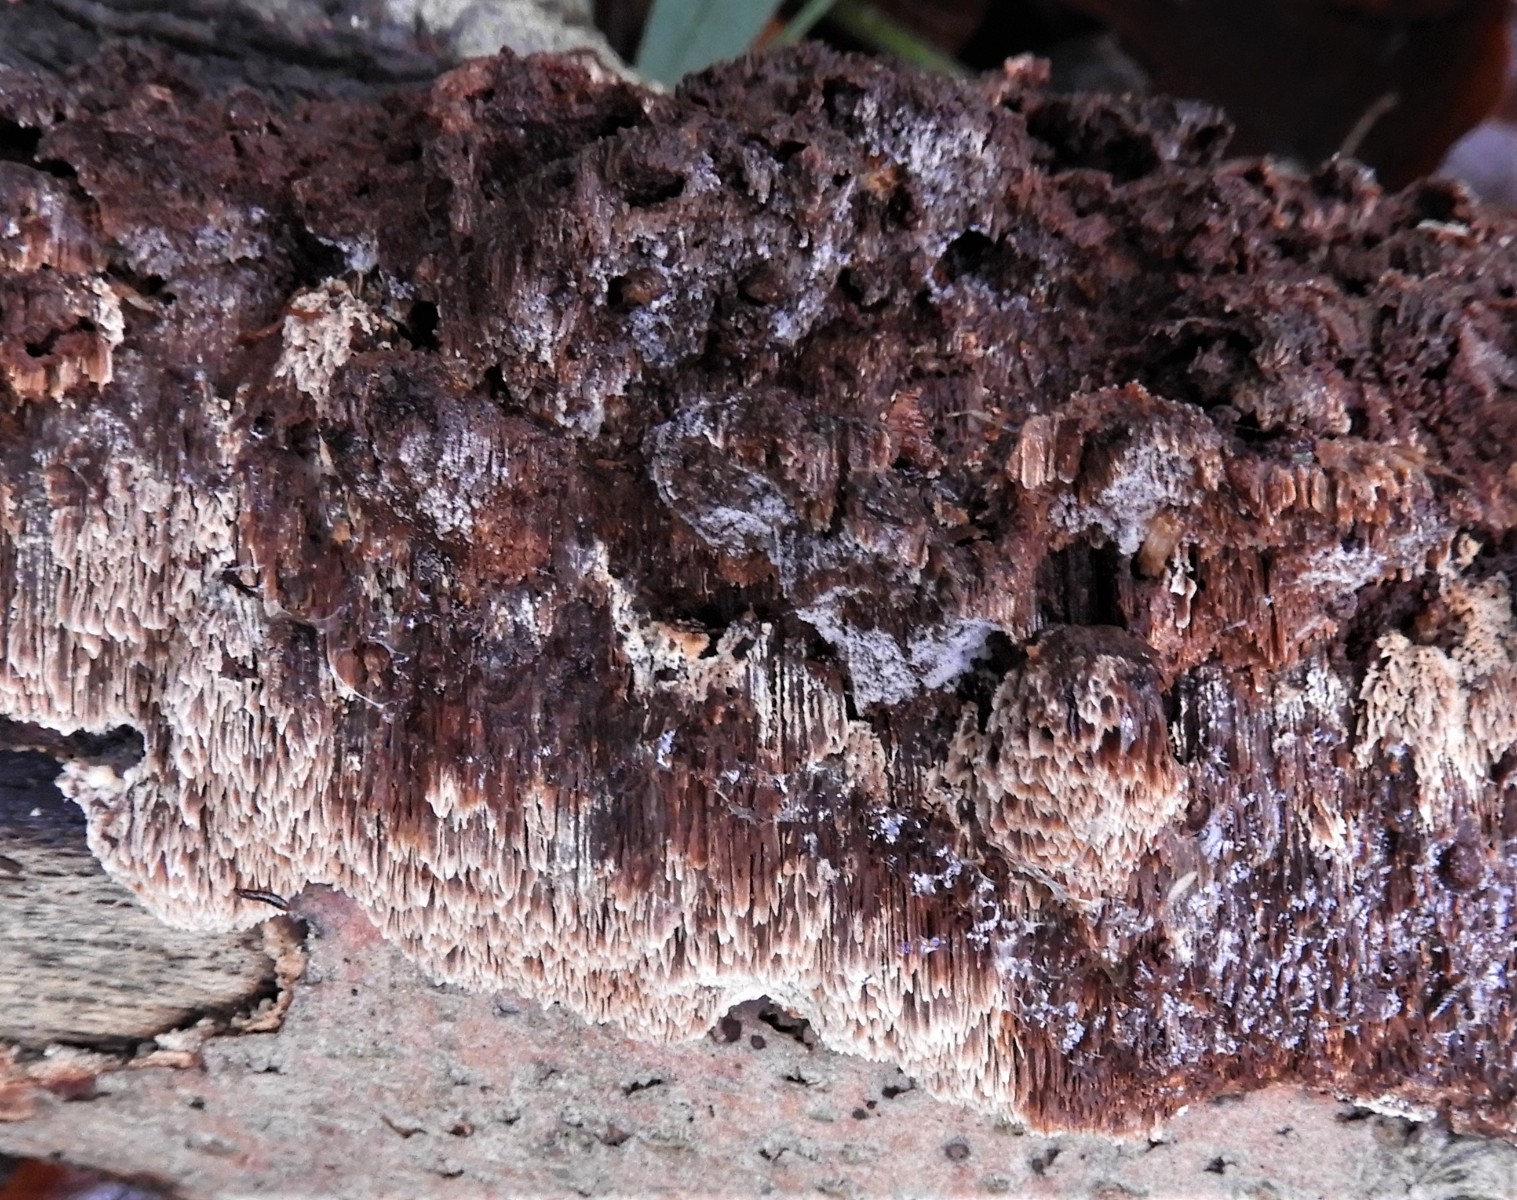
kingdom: Fungi
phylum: Basidiomycota
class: Agaricomycetes
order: Hymenochaetales
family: Hymenochaetaceae
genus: Mensularia
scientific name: Mensularia nodulosa
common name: bøge-spejlporesvamp
